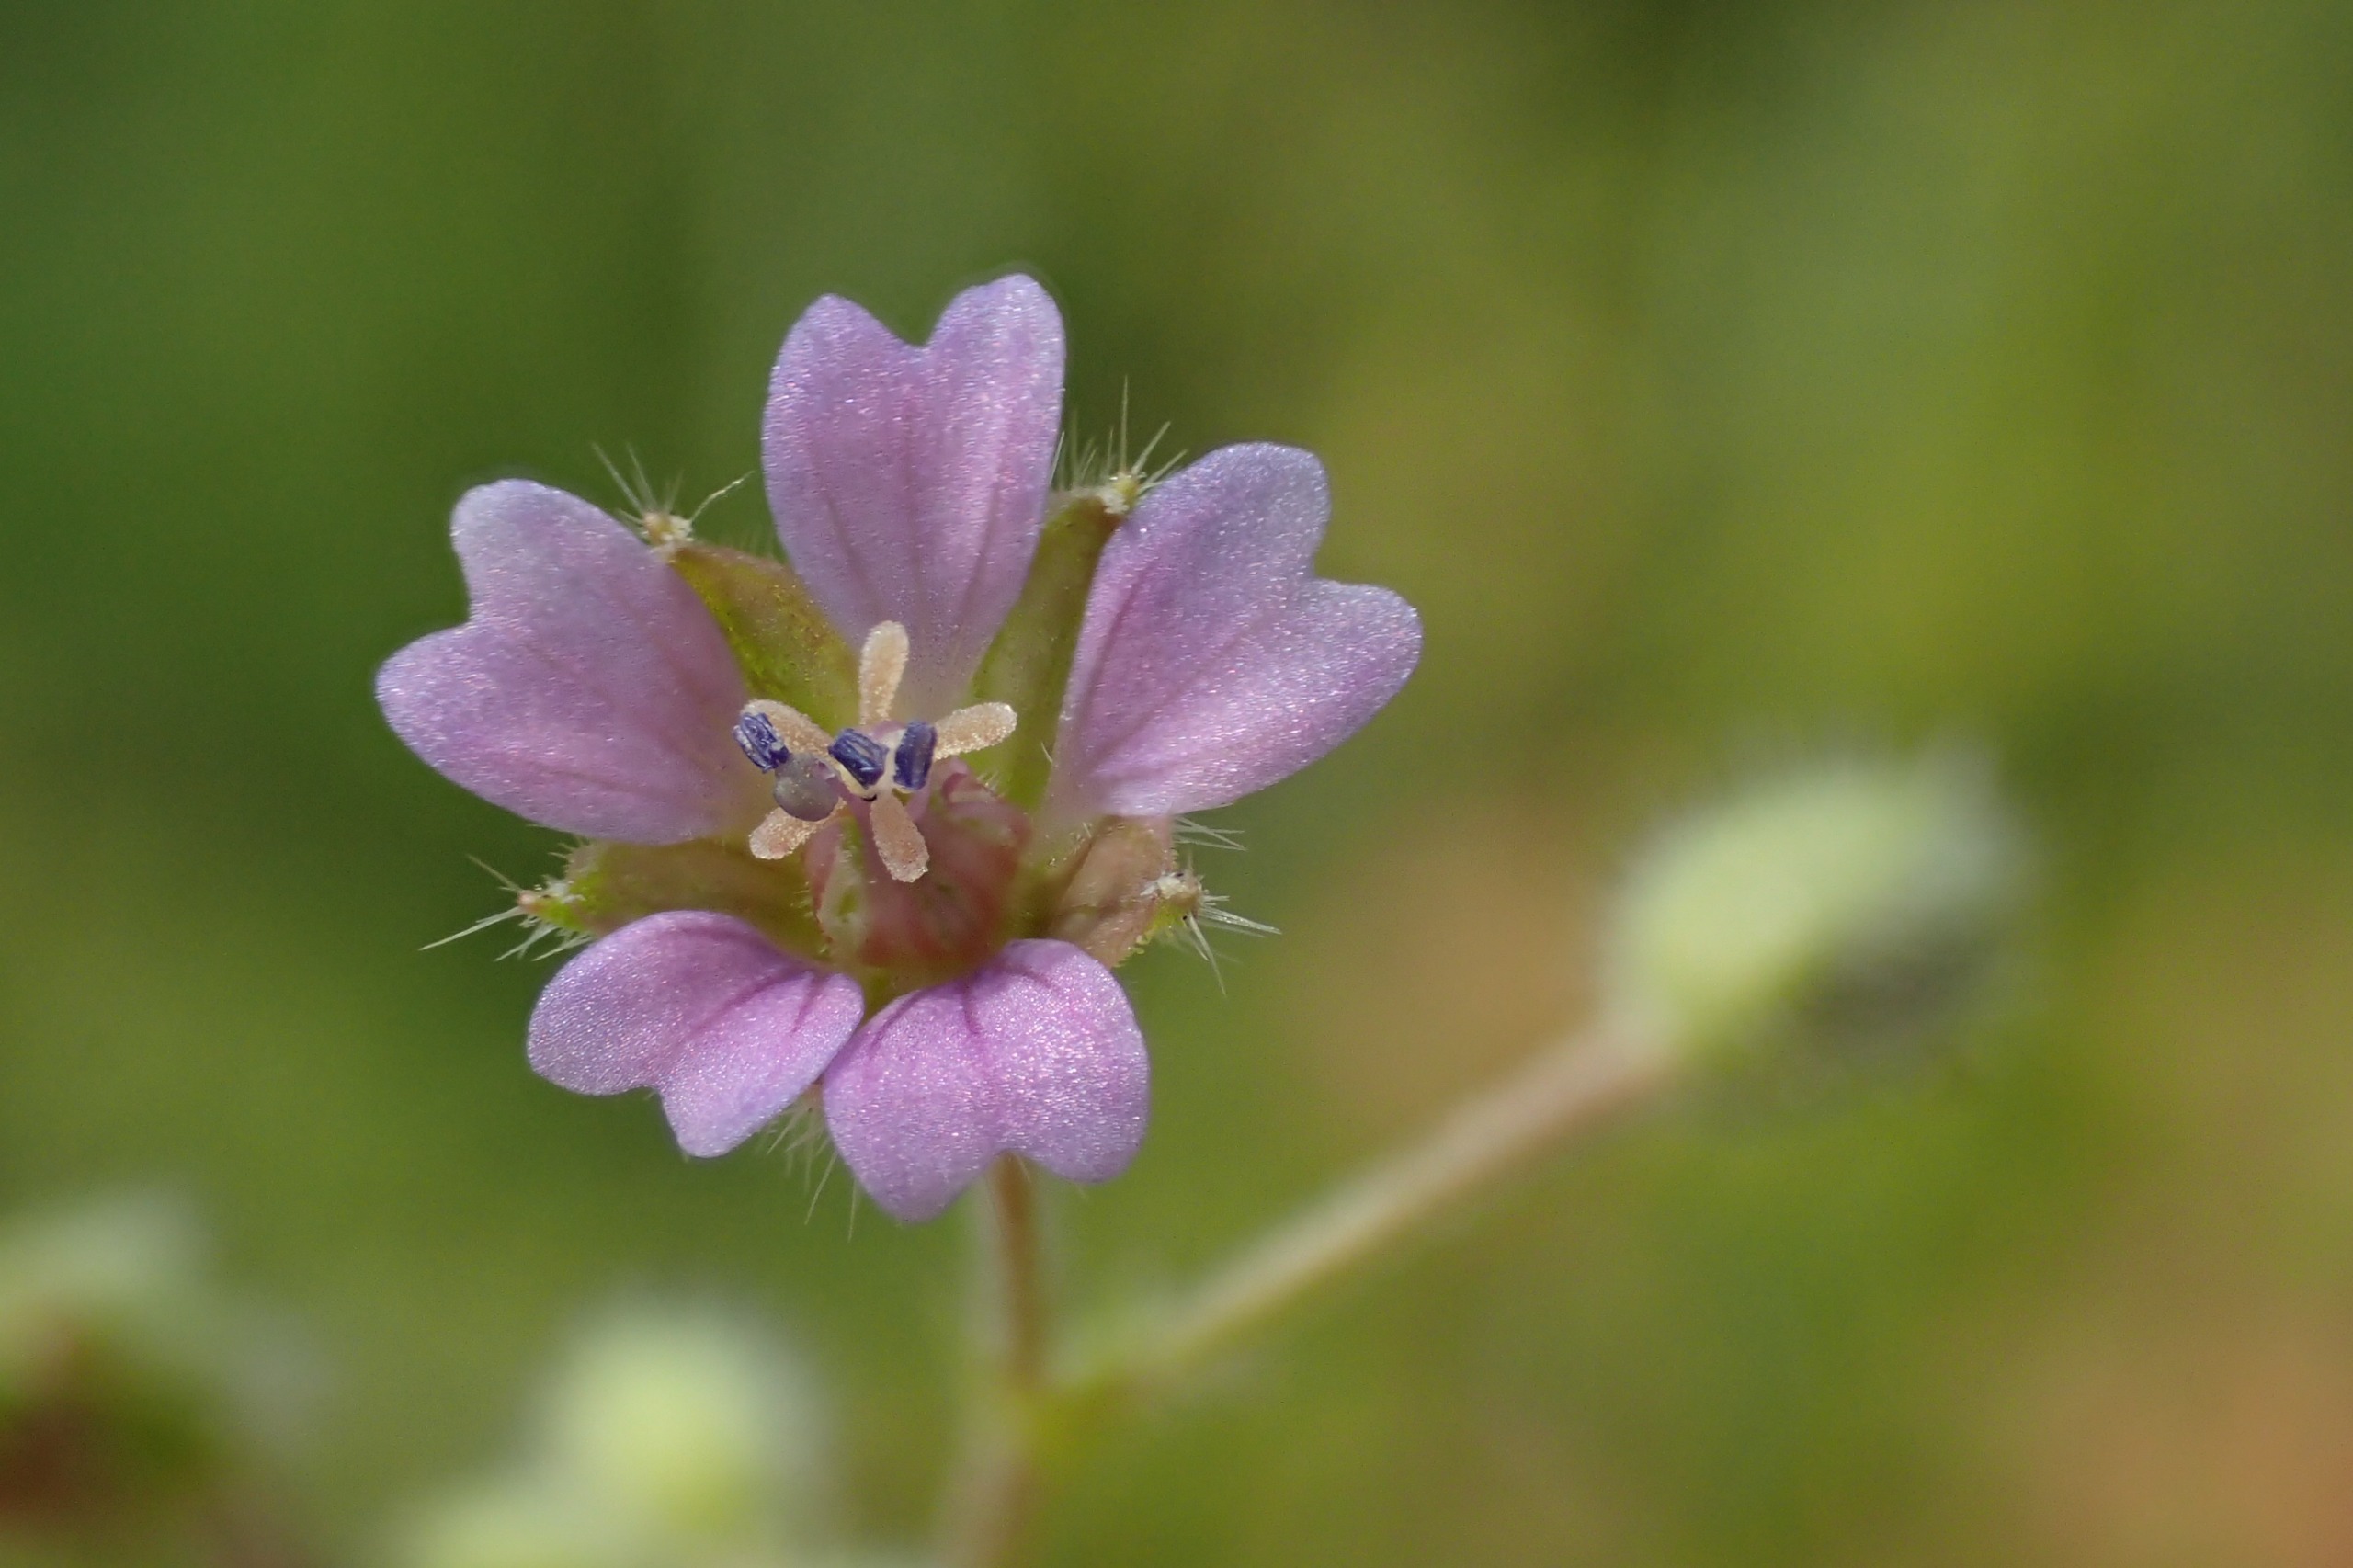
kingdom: Plantae
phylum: Tracheophyta
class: Magnoliopsida
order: Geraniales
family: Geraniaceae
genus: Geranium
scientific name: Geranium pusillum
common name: Liden storkenæb
